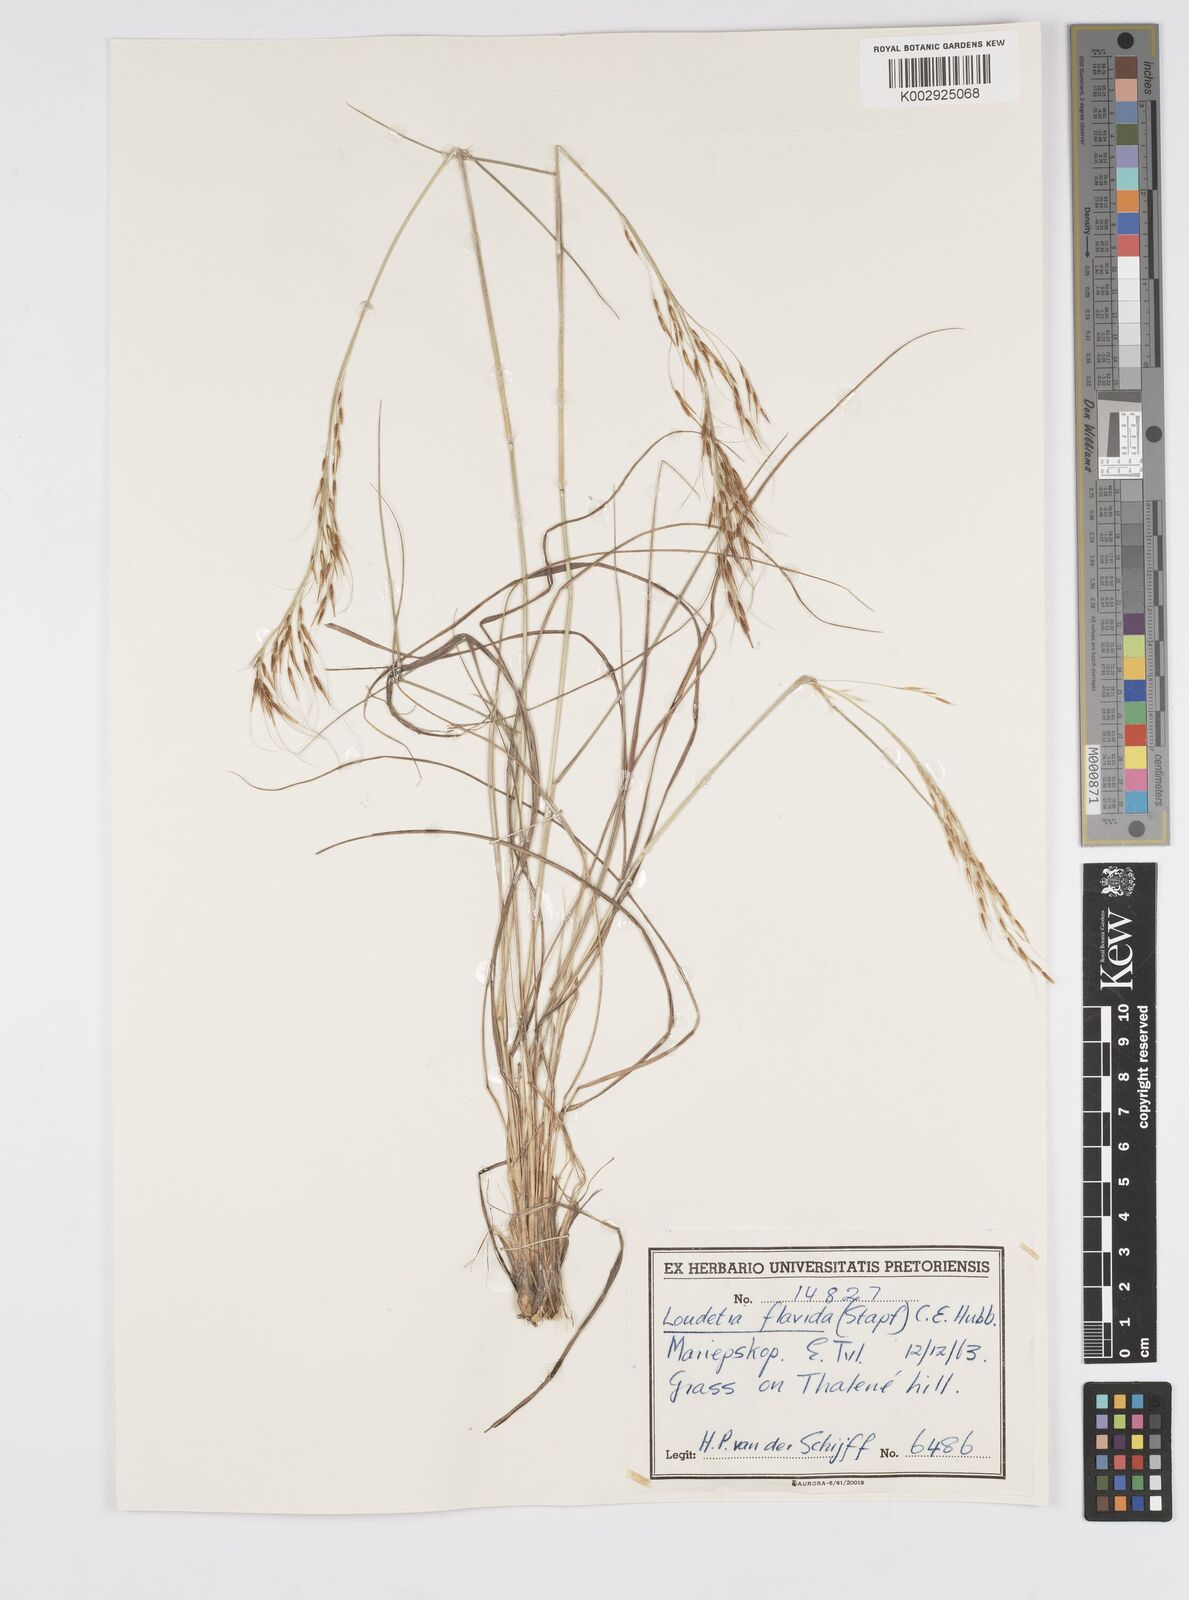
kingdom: Plantae
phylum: Tracheophyta
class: Liliopsida
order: Poales
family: Poaceae
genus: Loudetia
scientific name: Loudetia flavida
